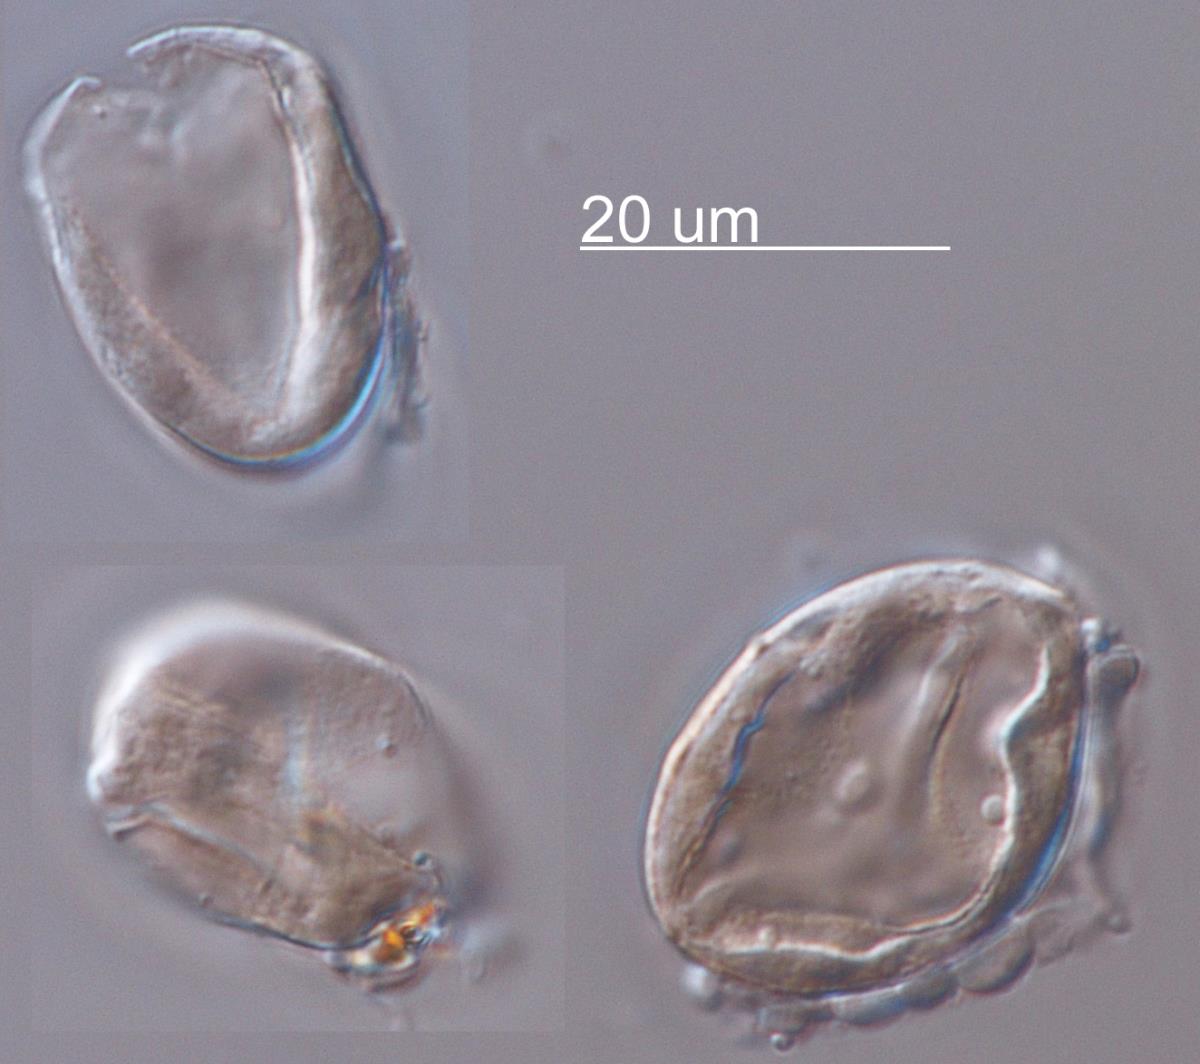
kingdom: Chromista
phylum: Oomycota
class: Peronosporea
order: Peronosporales
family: Peronosporaceae
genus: Peronospora
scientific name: Peronospora grisea
